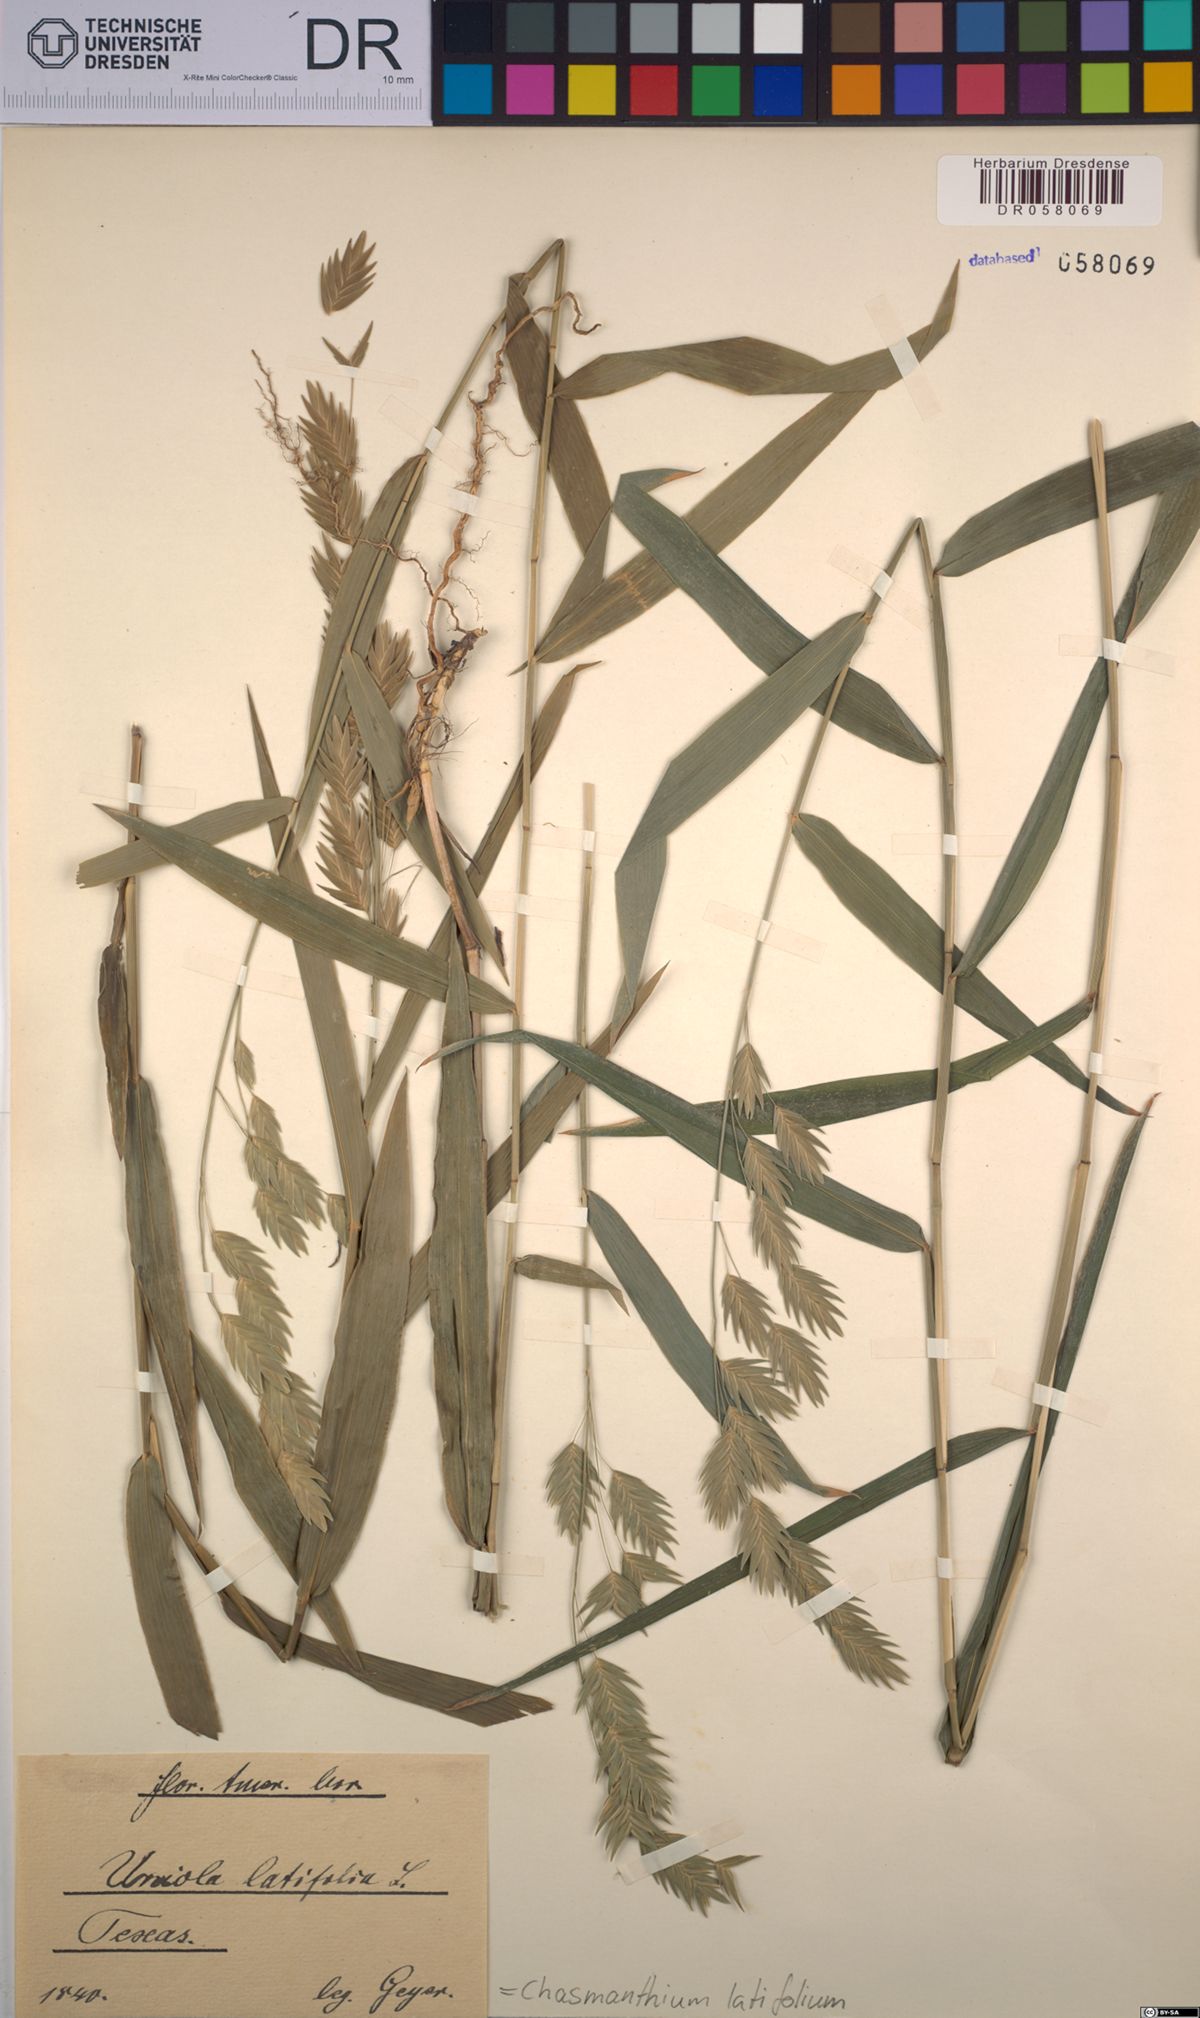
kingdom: Plantae
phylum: Tracheophyta
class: Liliopsida
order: Poales
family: Poaceae
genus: Chasmanthium
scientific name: Chasmanthium latifolium
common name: Broad-leaved chasmanthium
